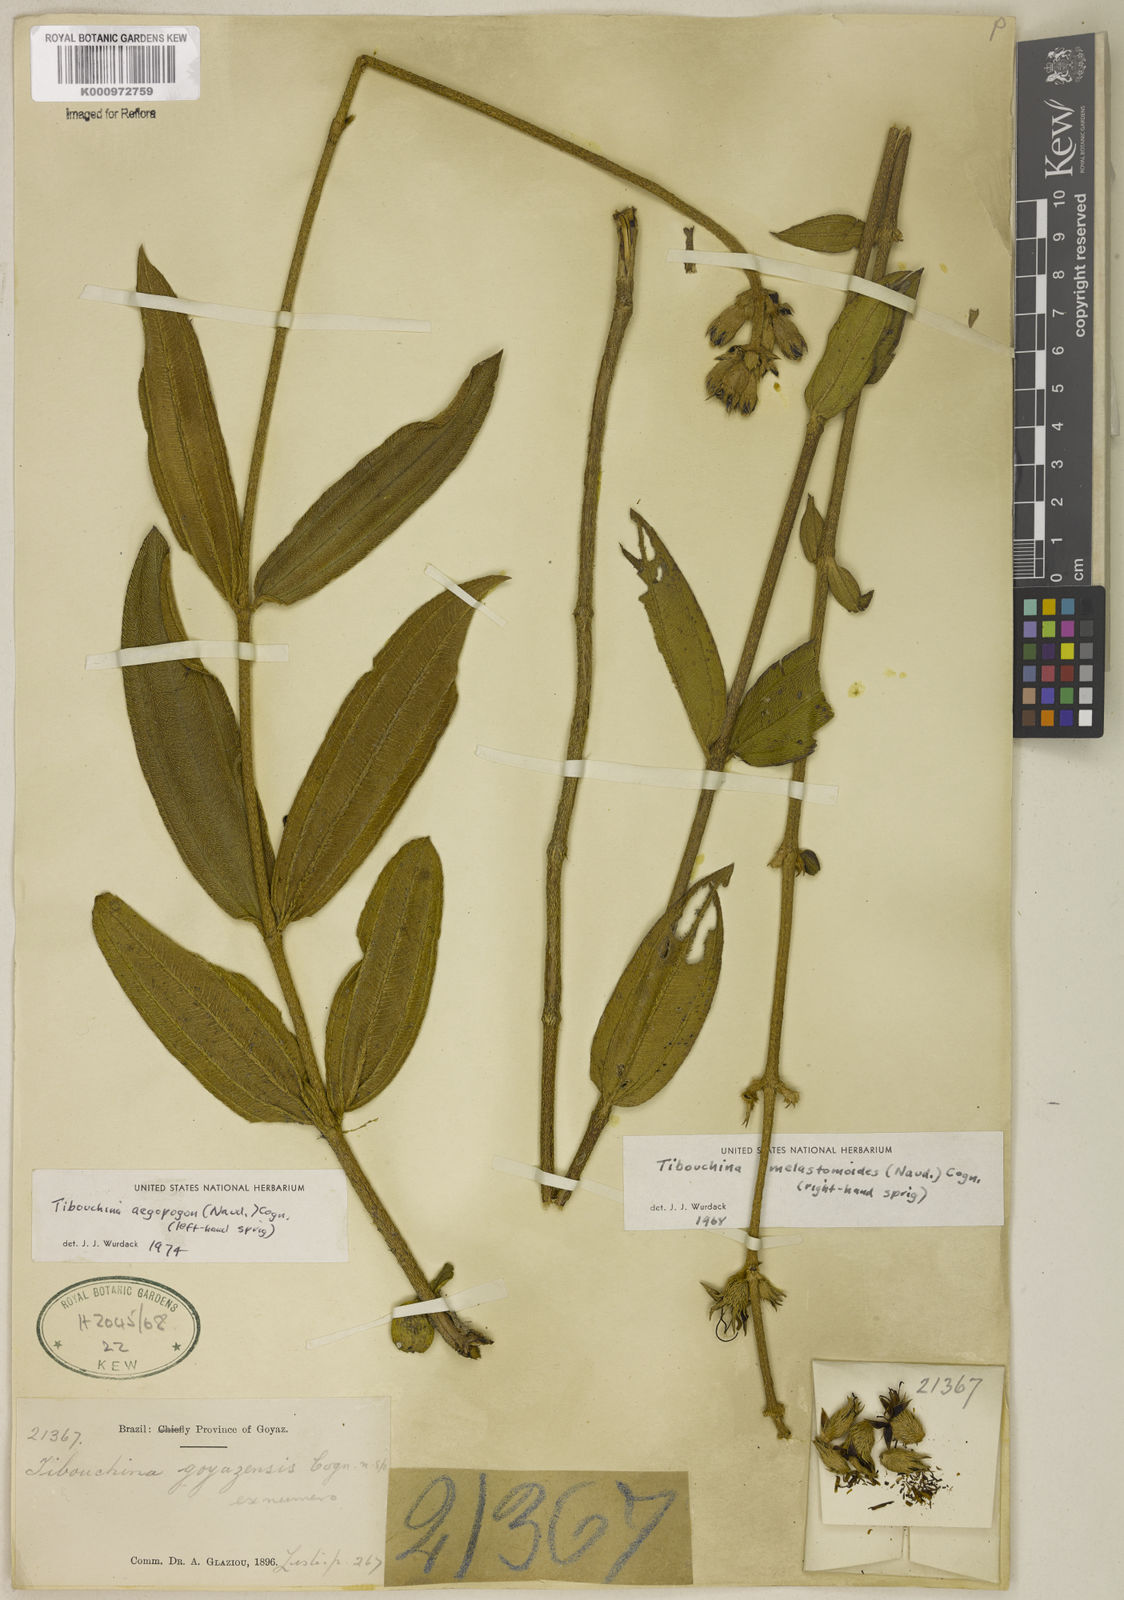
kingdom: Plantae
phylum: Tracheophyta
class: Magnoliopsida
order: Myrtales
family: Melastomataceae
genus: Pleroma
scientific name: Pleroma aegopogon
